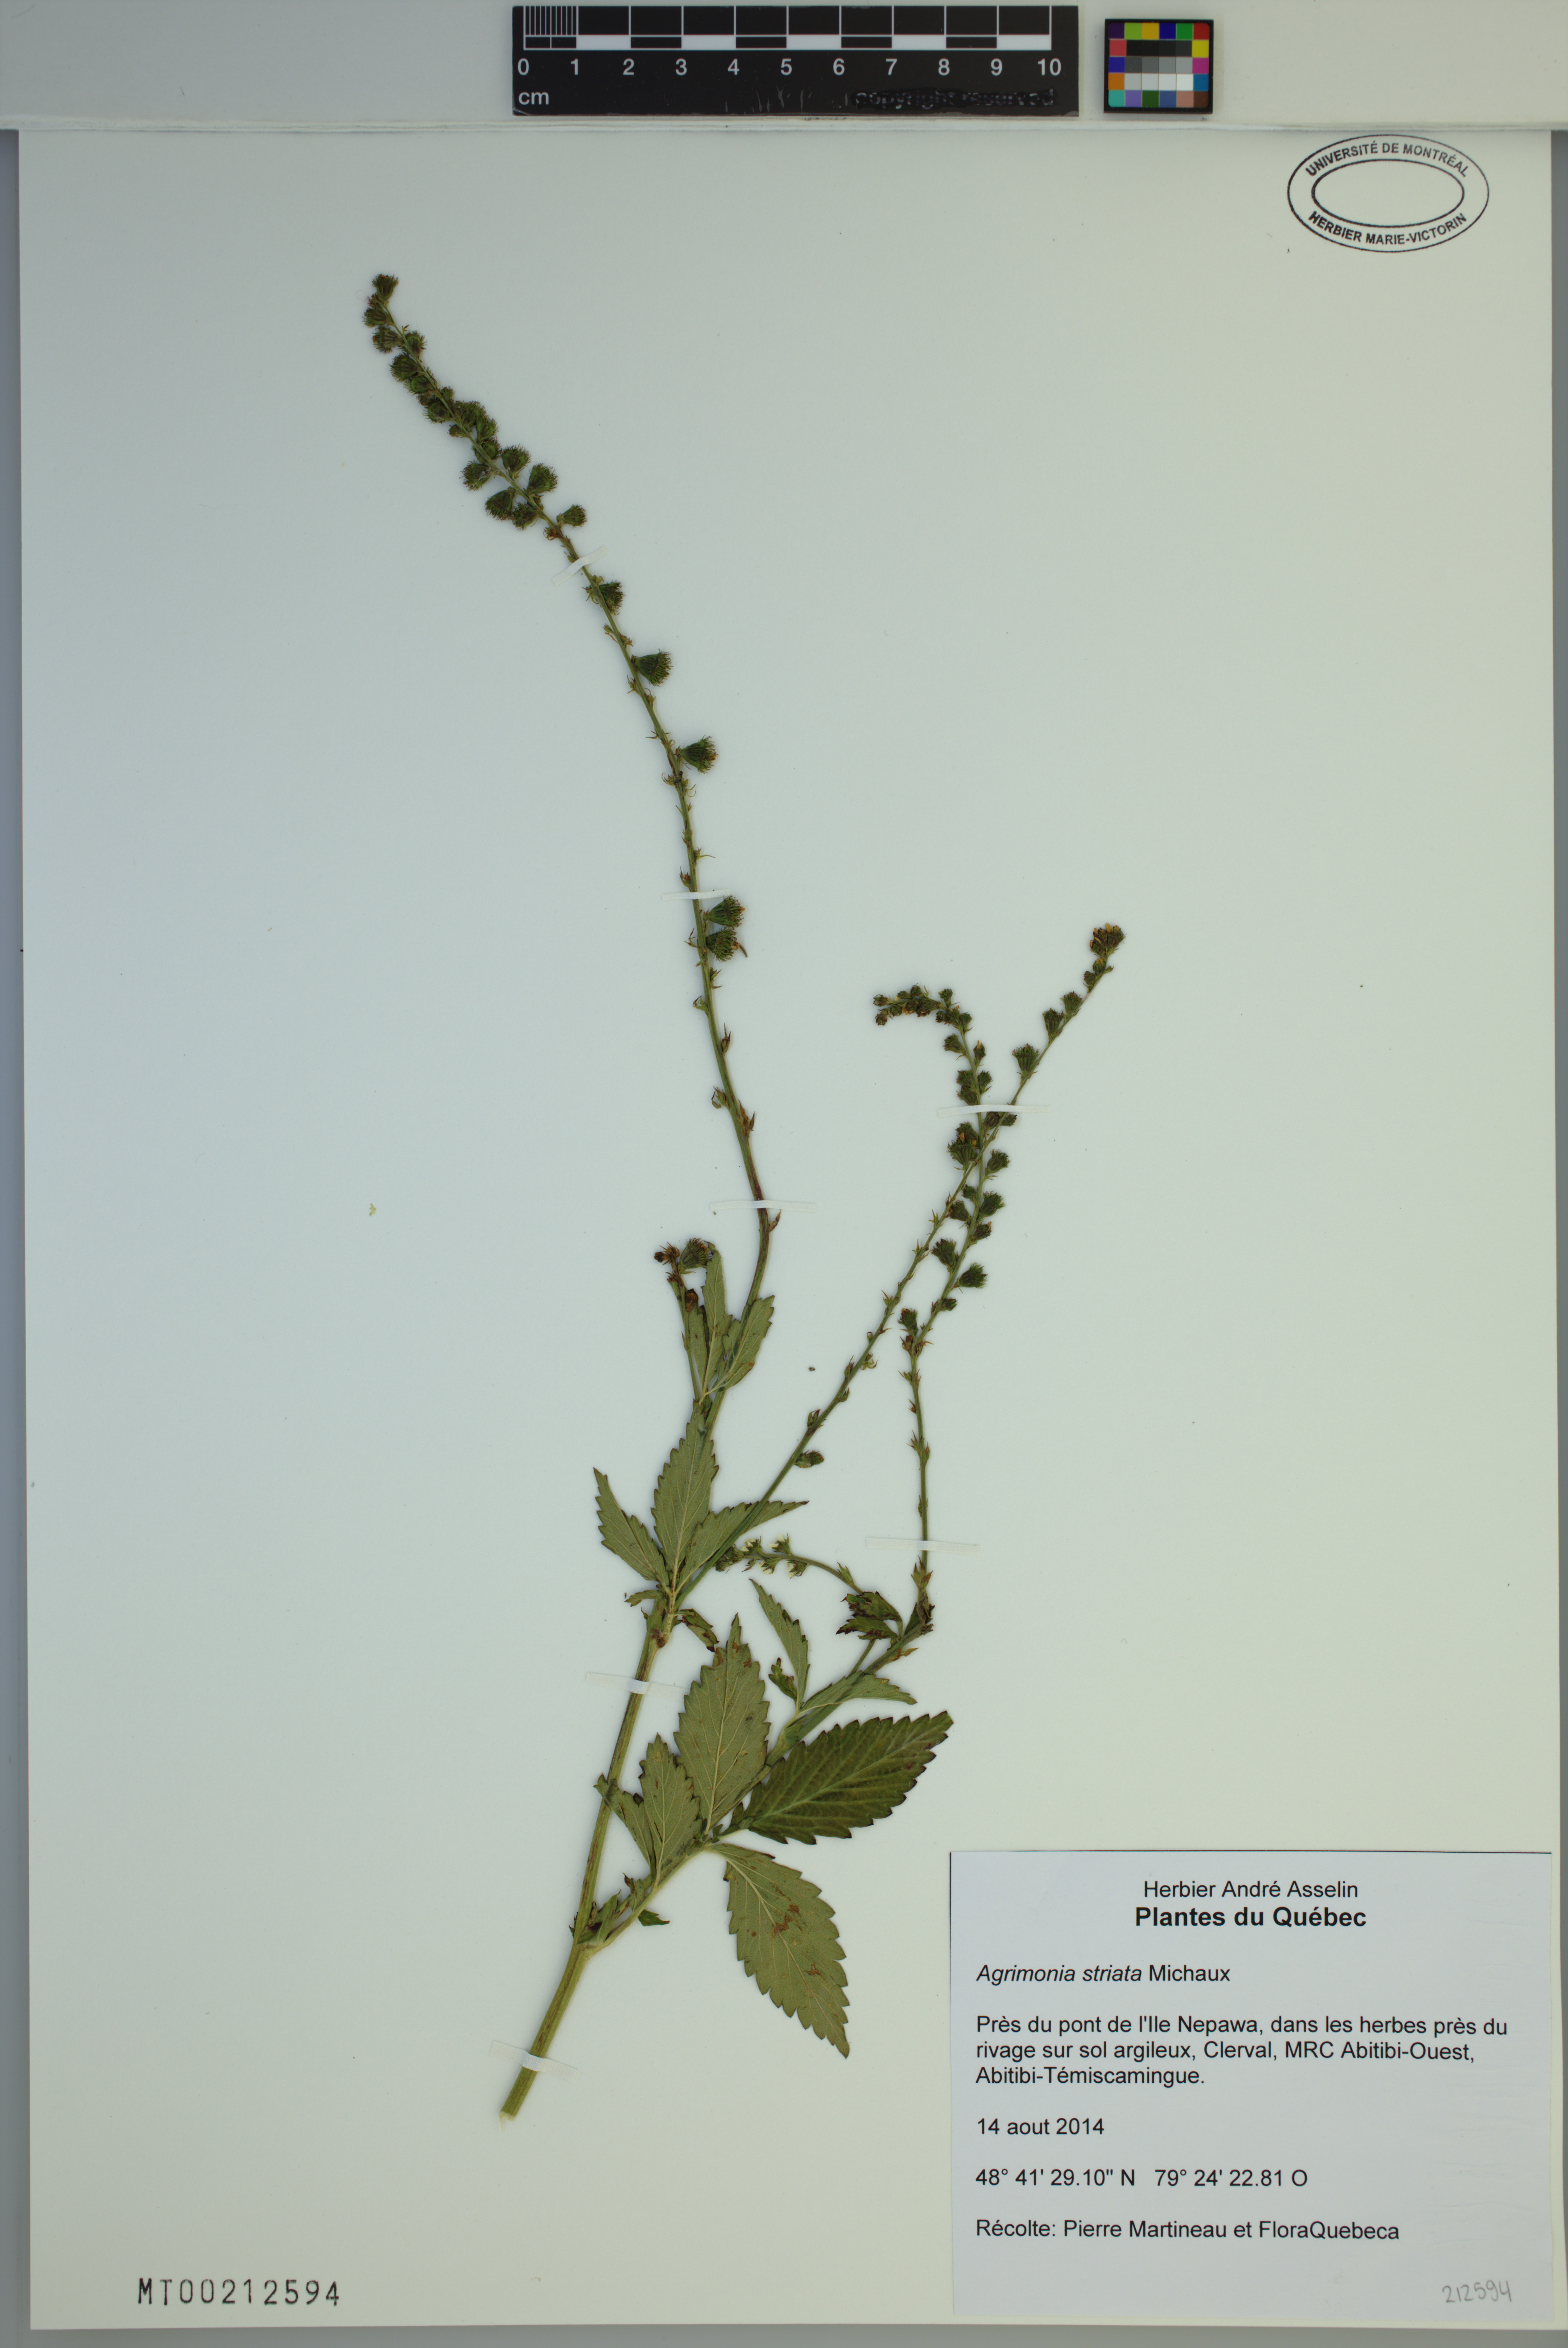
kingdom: Plantae
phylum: Tracheophyta
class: Magnoliopsida
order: Rosales
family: Rosaceae
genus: Agrimonia
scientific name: Agrimonia striata
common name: Britton's agrimony
